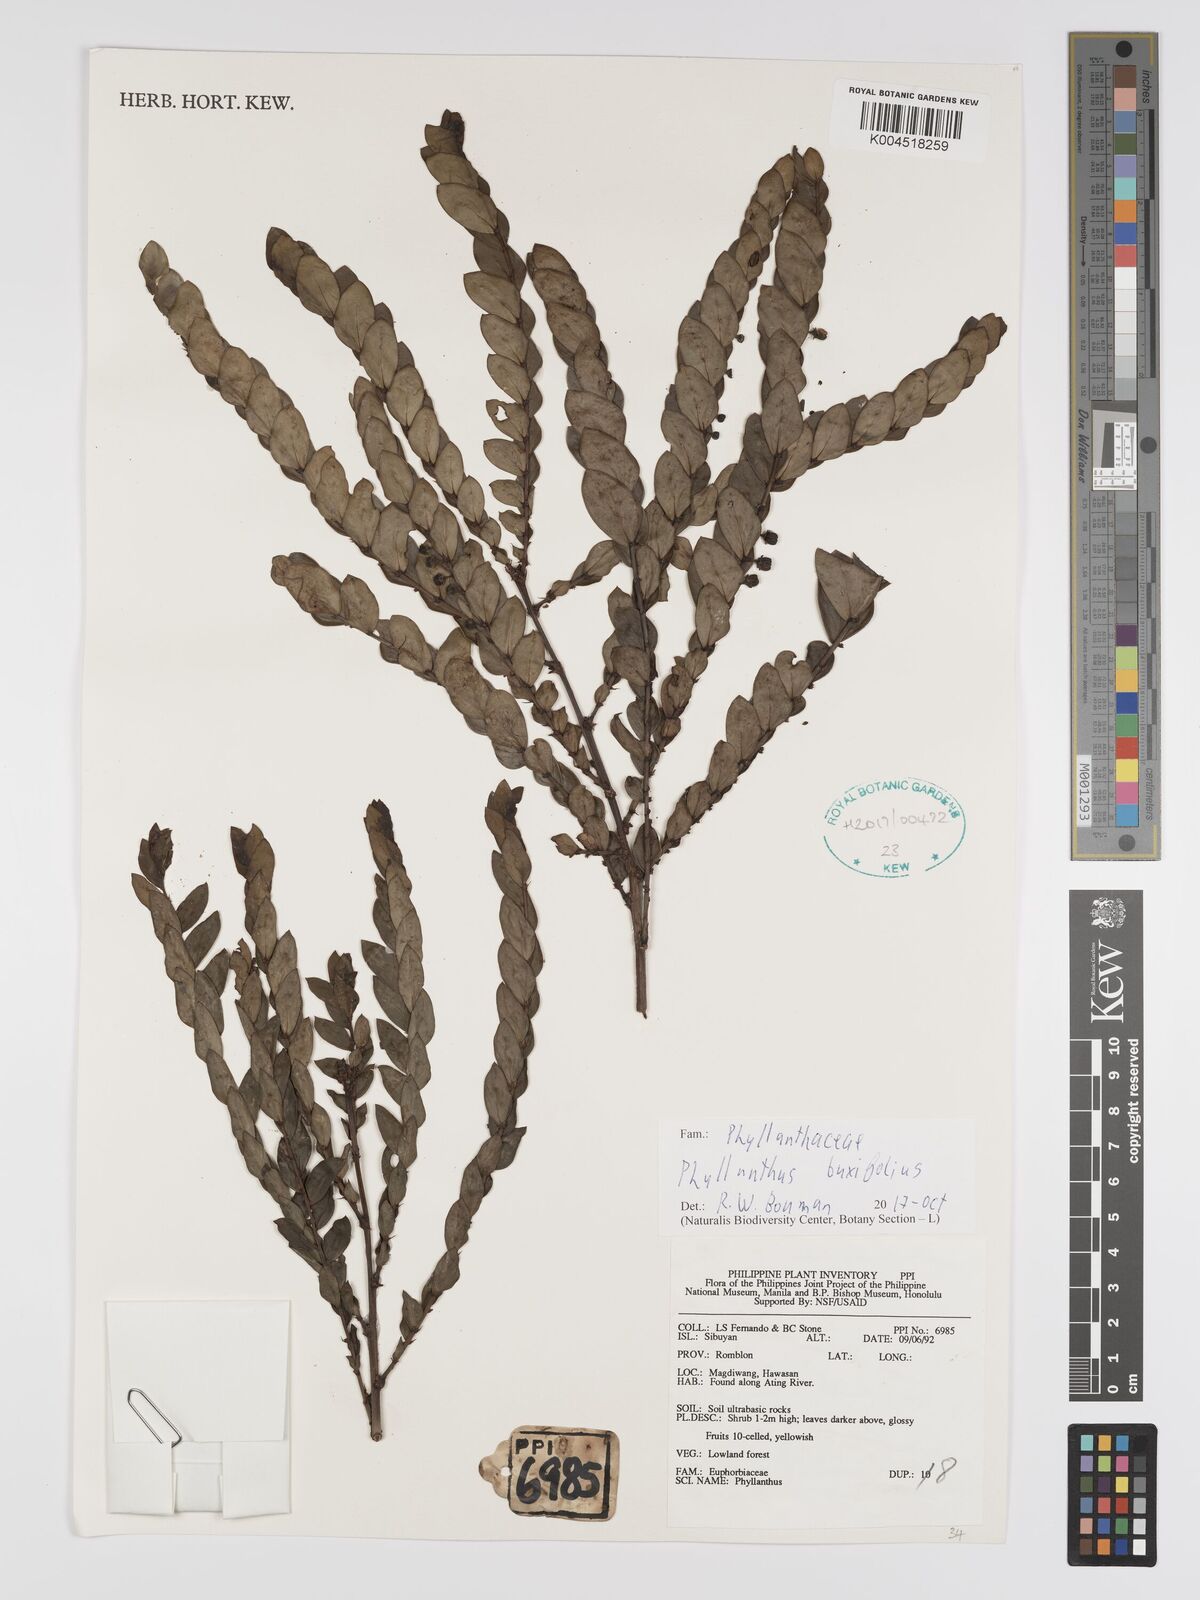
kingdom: Plantae
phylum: Tracheophyta
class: Magnoliopsida
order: Malpighiales
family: Phyllanthaceae
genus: Phyllanthus
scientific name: Phyllanthus buxifolius
